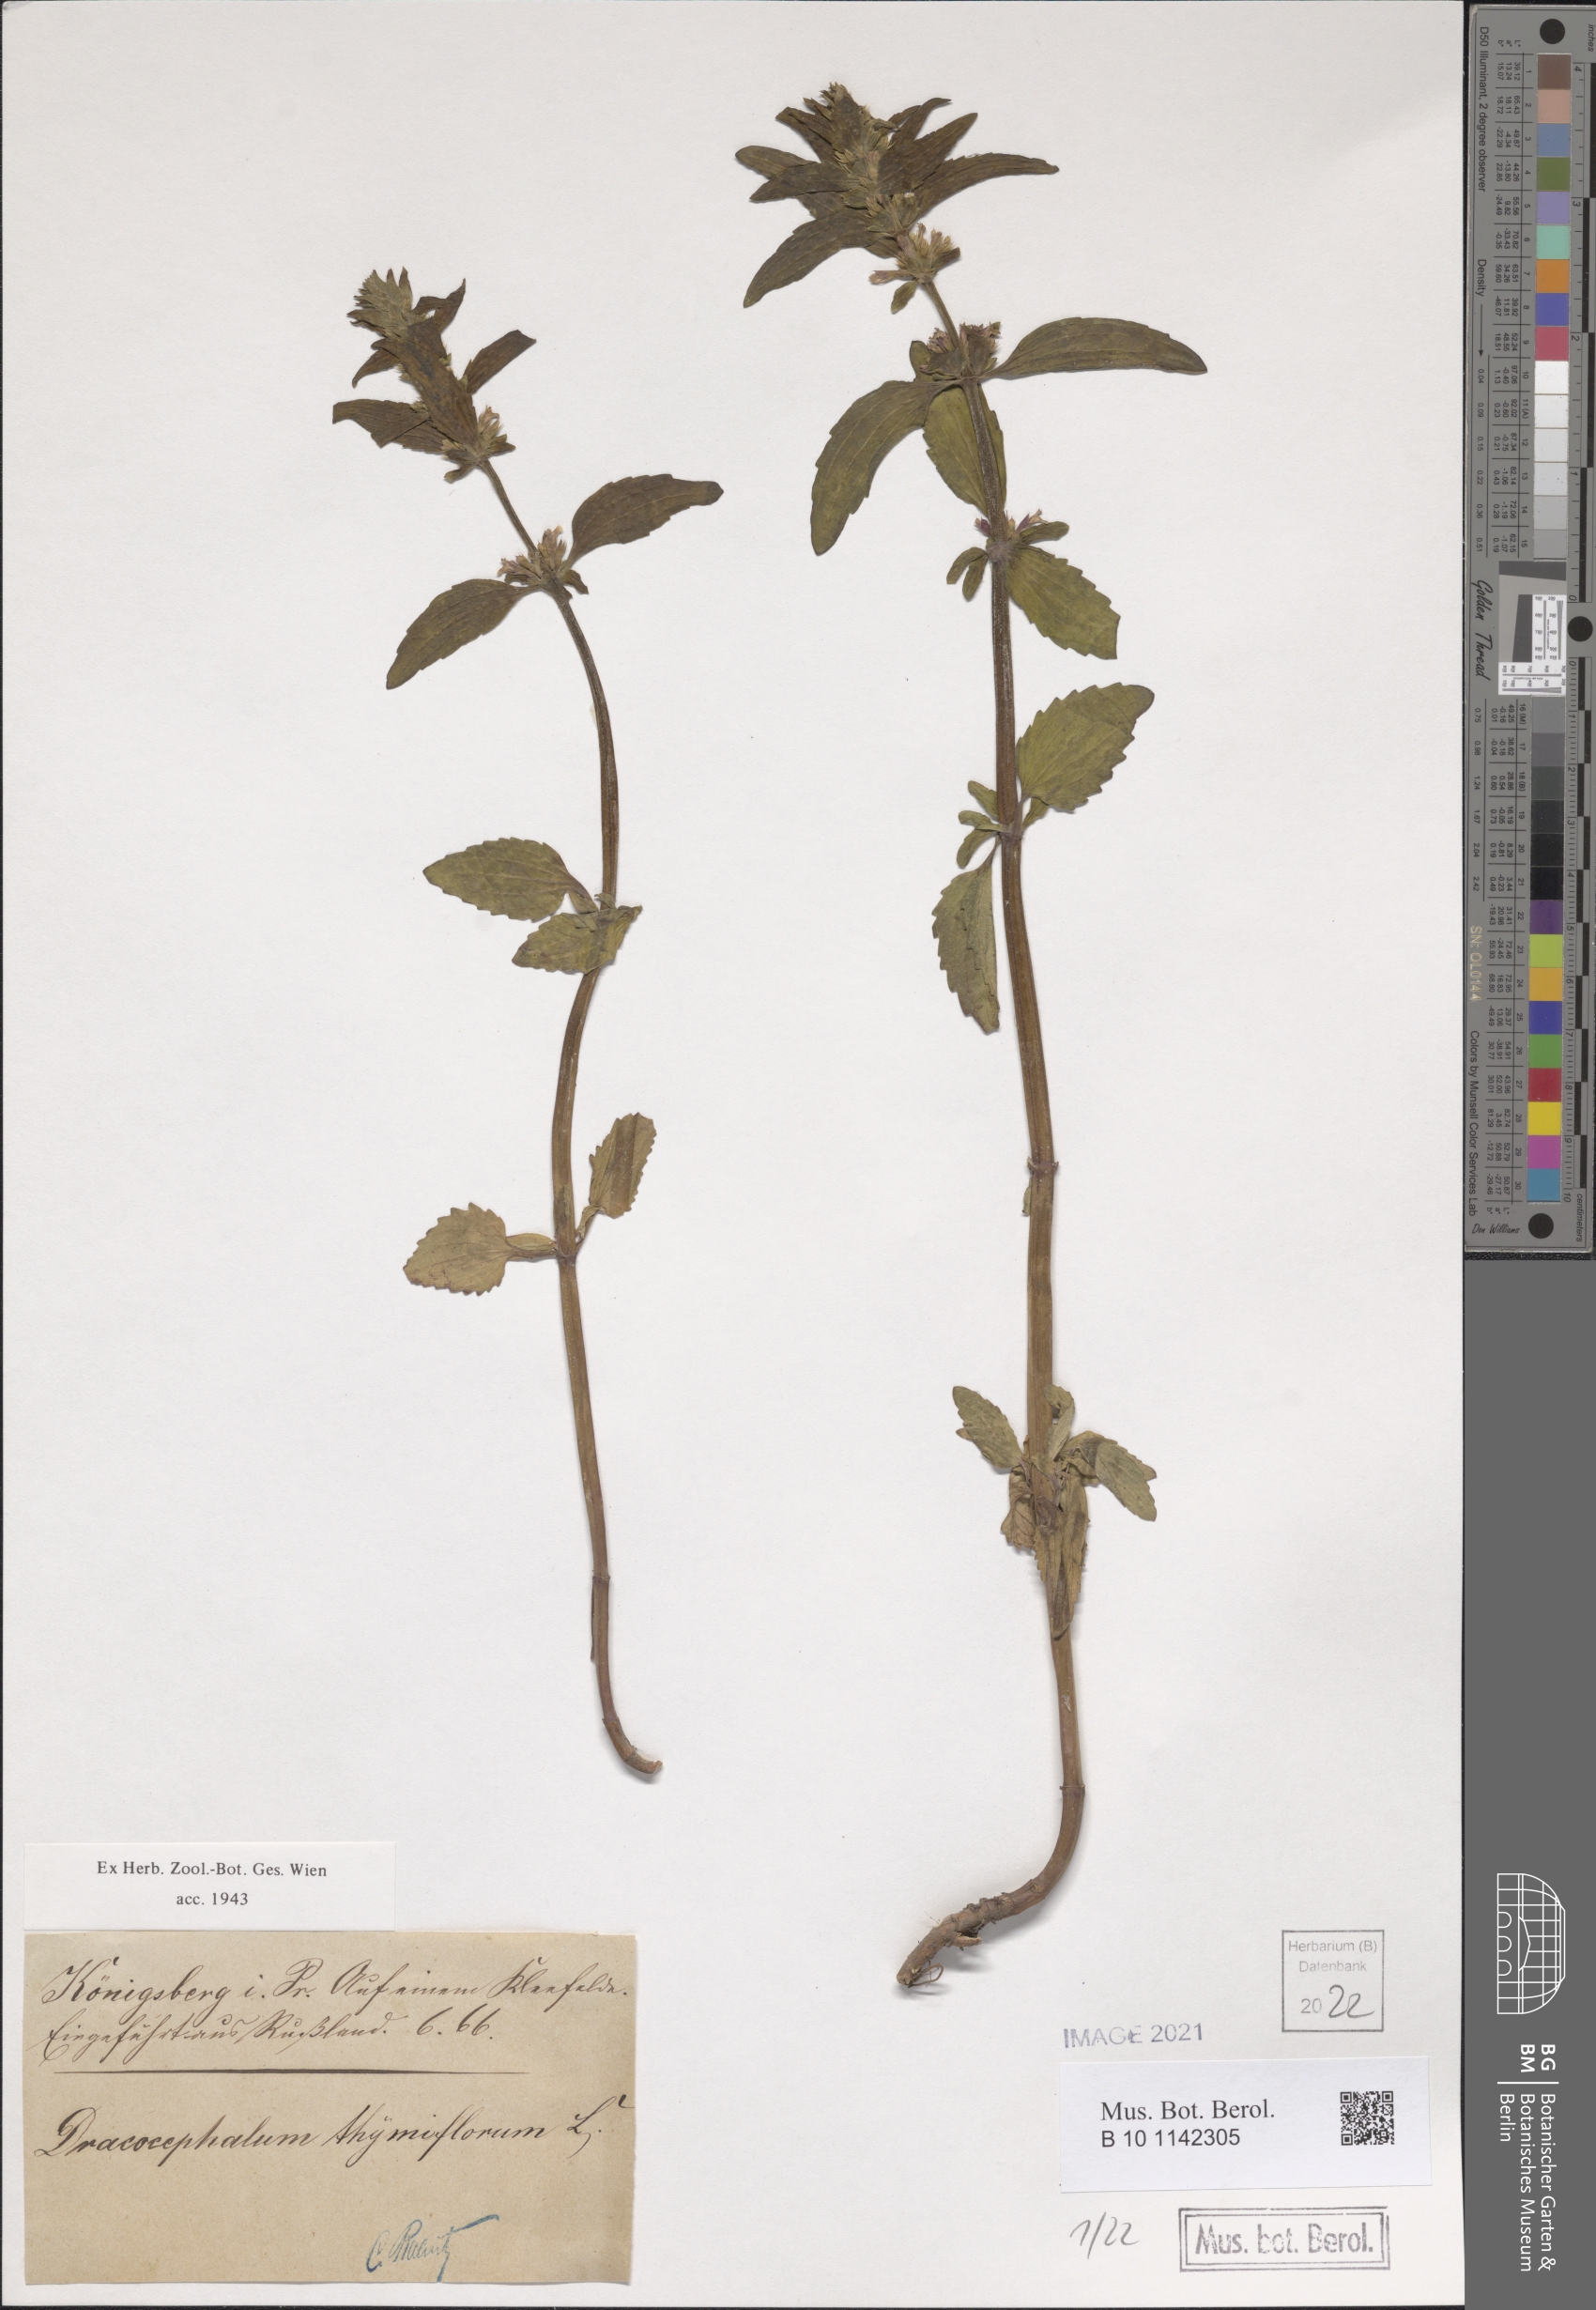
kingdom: Plantae
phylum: Tracheophyta
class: Magnoliopsida
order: Lamiales
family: Lamiaceae
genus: Dracocephalum
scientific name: Dracocephalum thymiflorum
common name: Thymeleaf dragonhead
